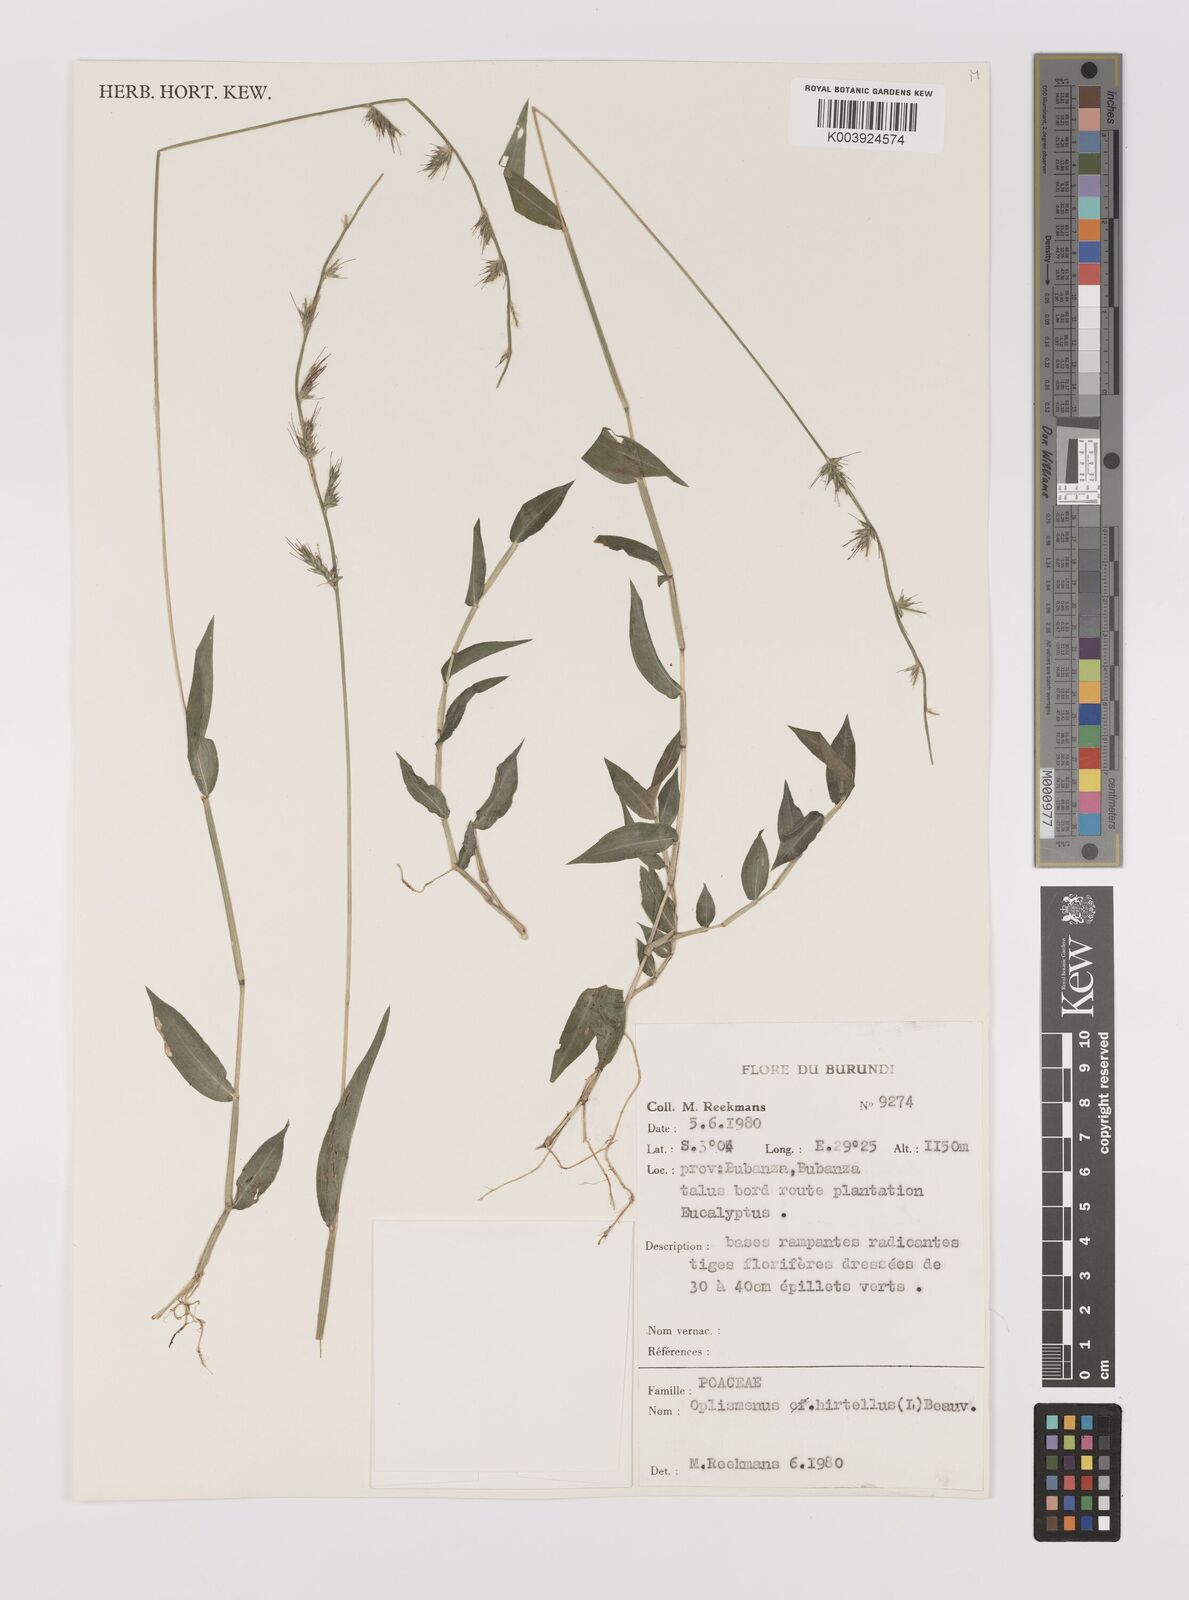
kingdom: Plantae
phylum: Tracheophyta
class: Liliopsida
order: Poales
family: Poaceae
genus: Oplismenus
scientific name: Oplismenus hirtellus
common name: Basketgrass
